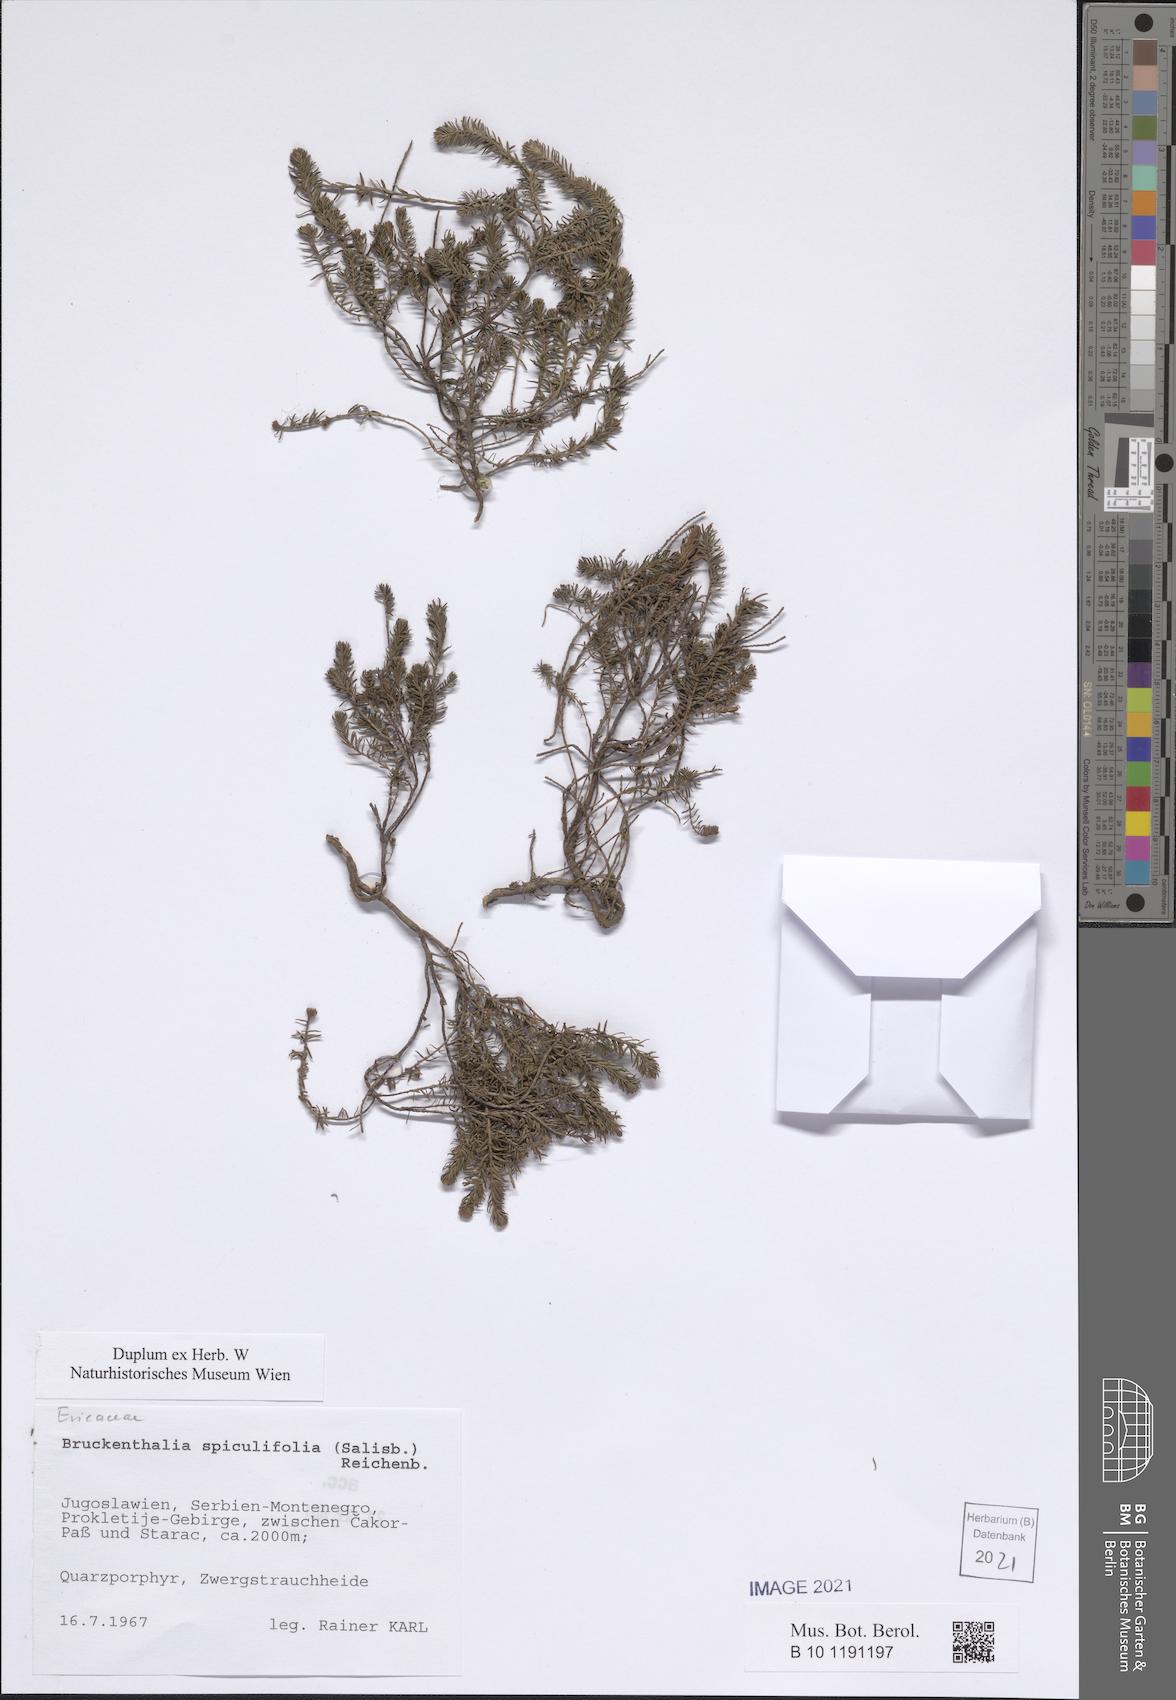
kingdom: Plantae
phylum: Tracheophyta
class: Magnoliopsida
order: Ericales
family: Ericaceae
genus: Erica
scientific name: Erica spiculifolia
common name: Spike heath
